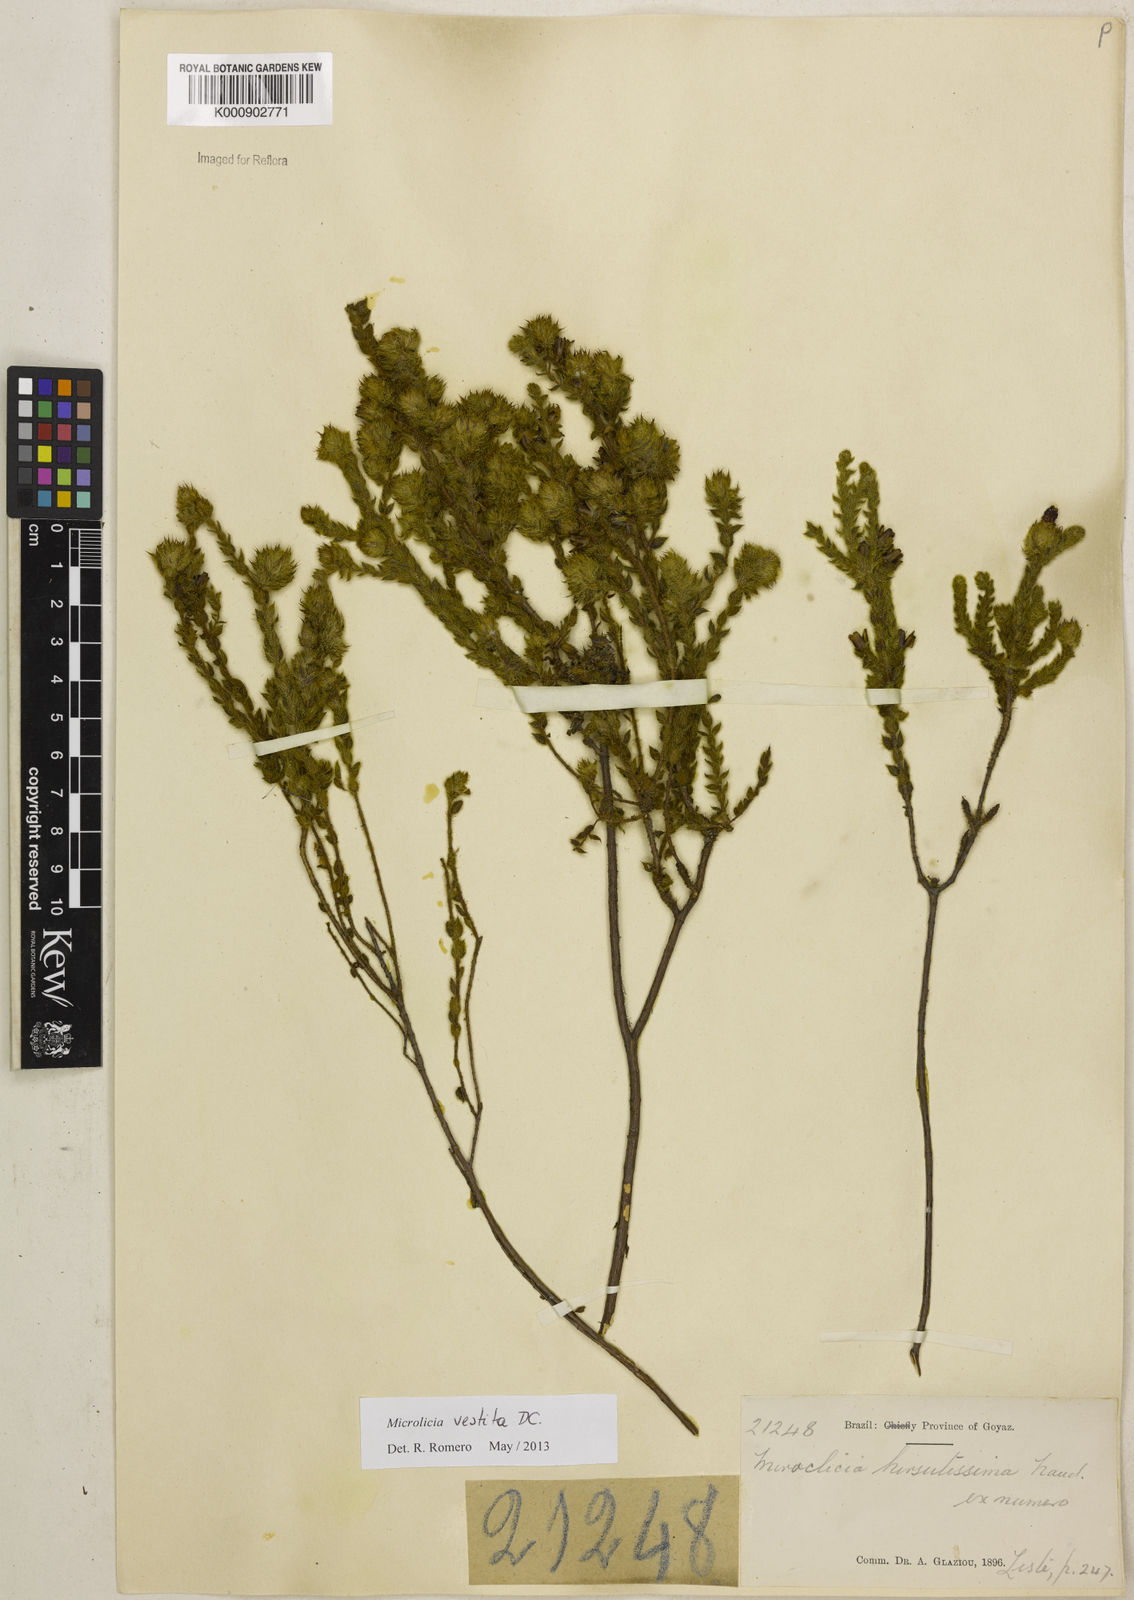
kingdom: Plantae
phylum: Tracheophyta
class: Magnoliopsida
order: Myrtales
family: Melastomataceae
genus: Microlicia
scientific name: Microlicia vestita
